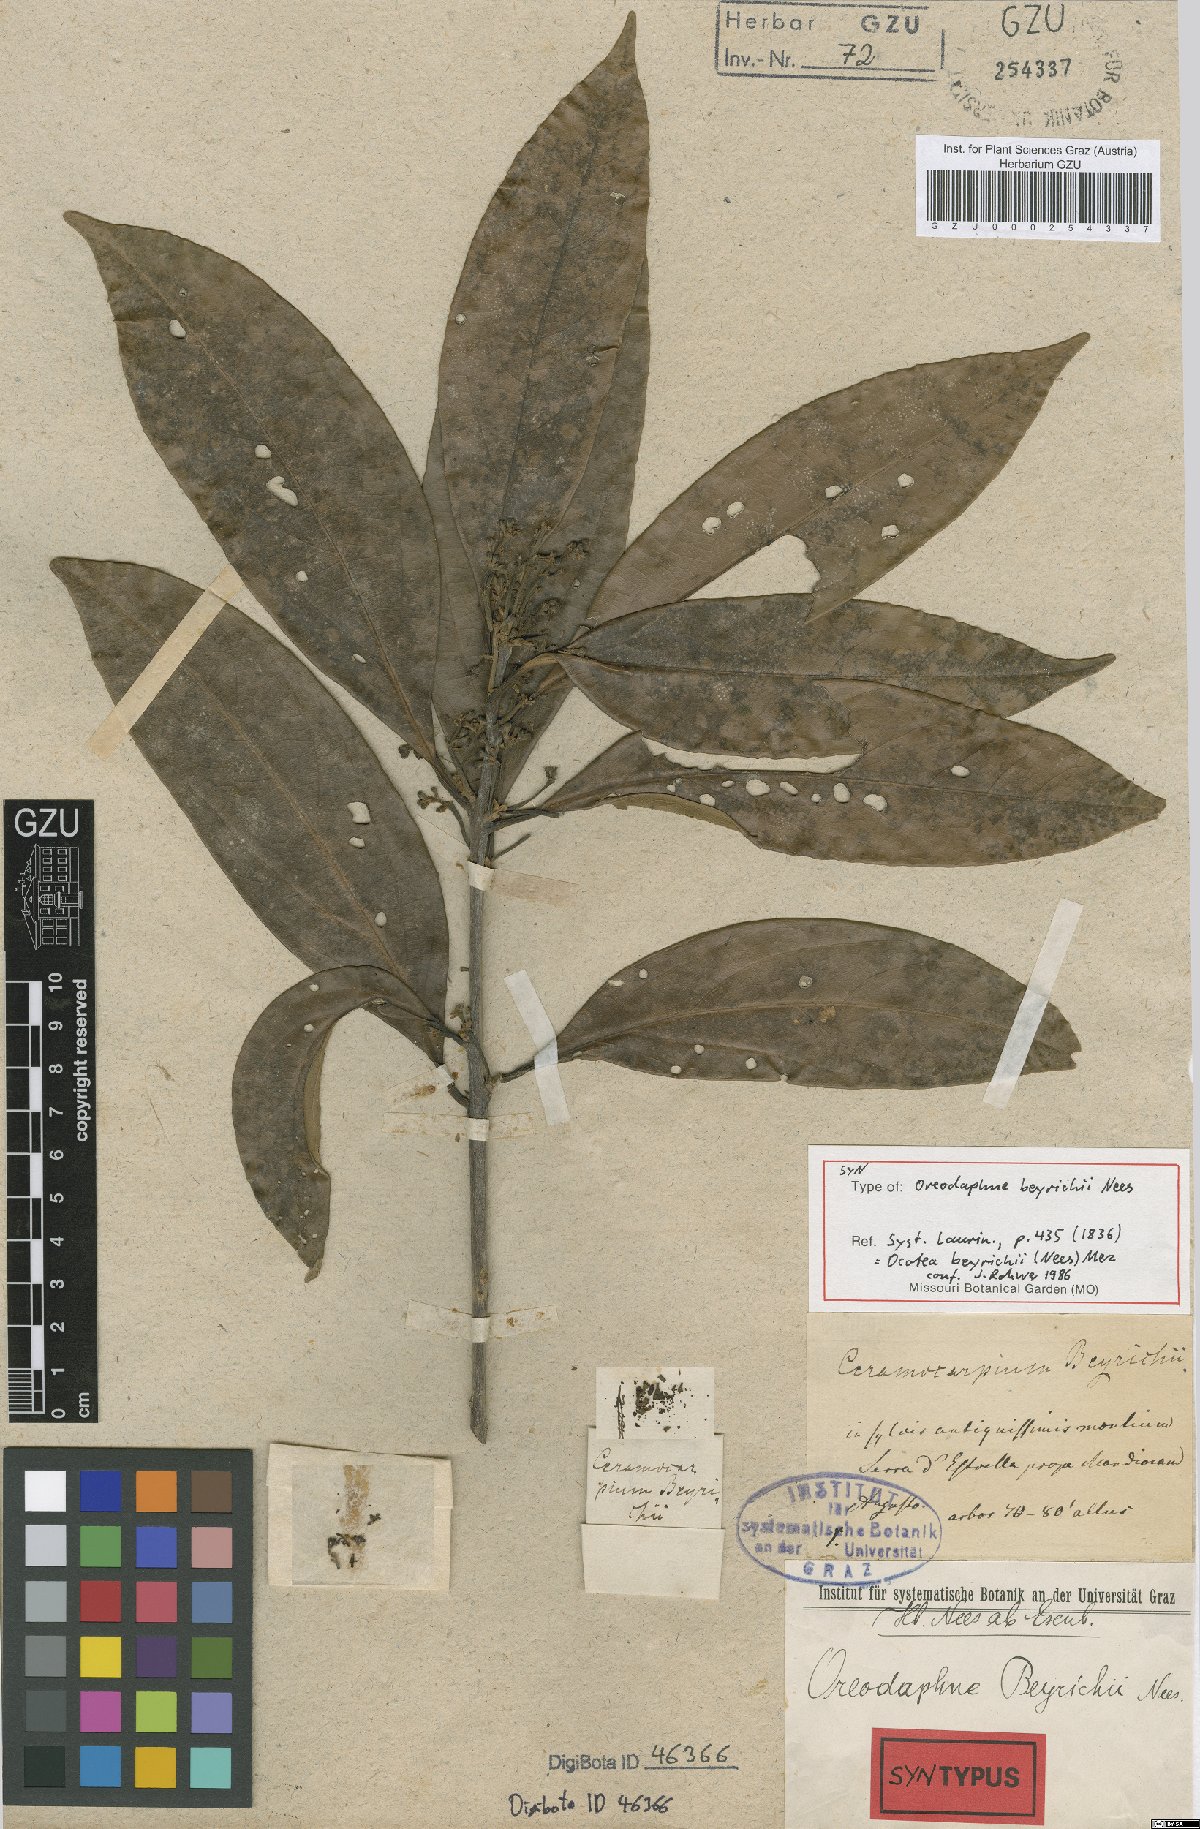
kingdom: Plantae
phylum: Tracheophyta
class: Magnoliopsida
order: Laurales
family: Lauraceae
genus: Ocotea
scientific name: Ocotea beyrichii
